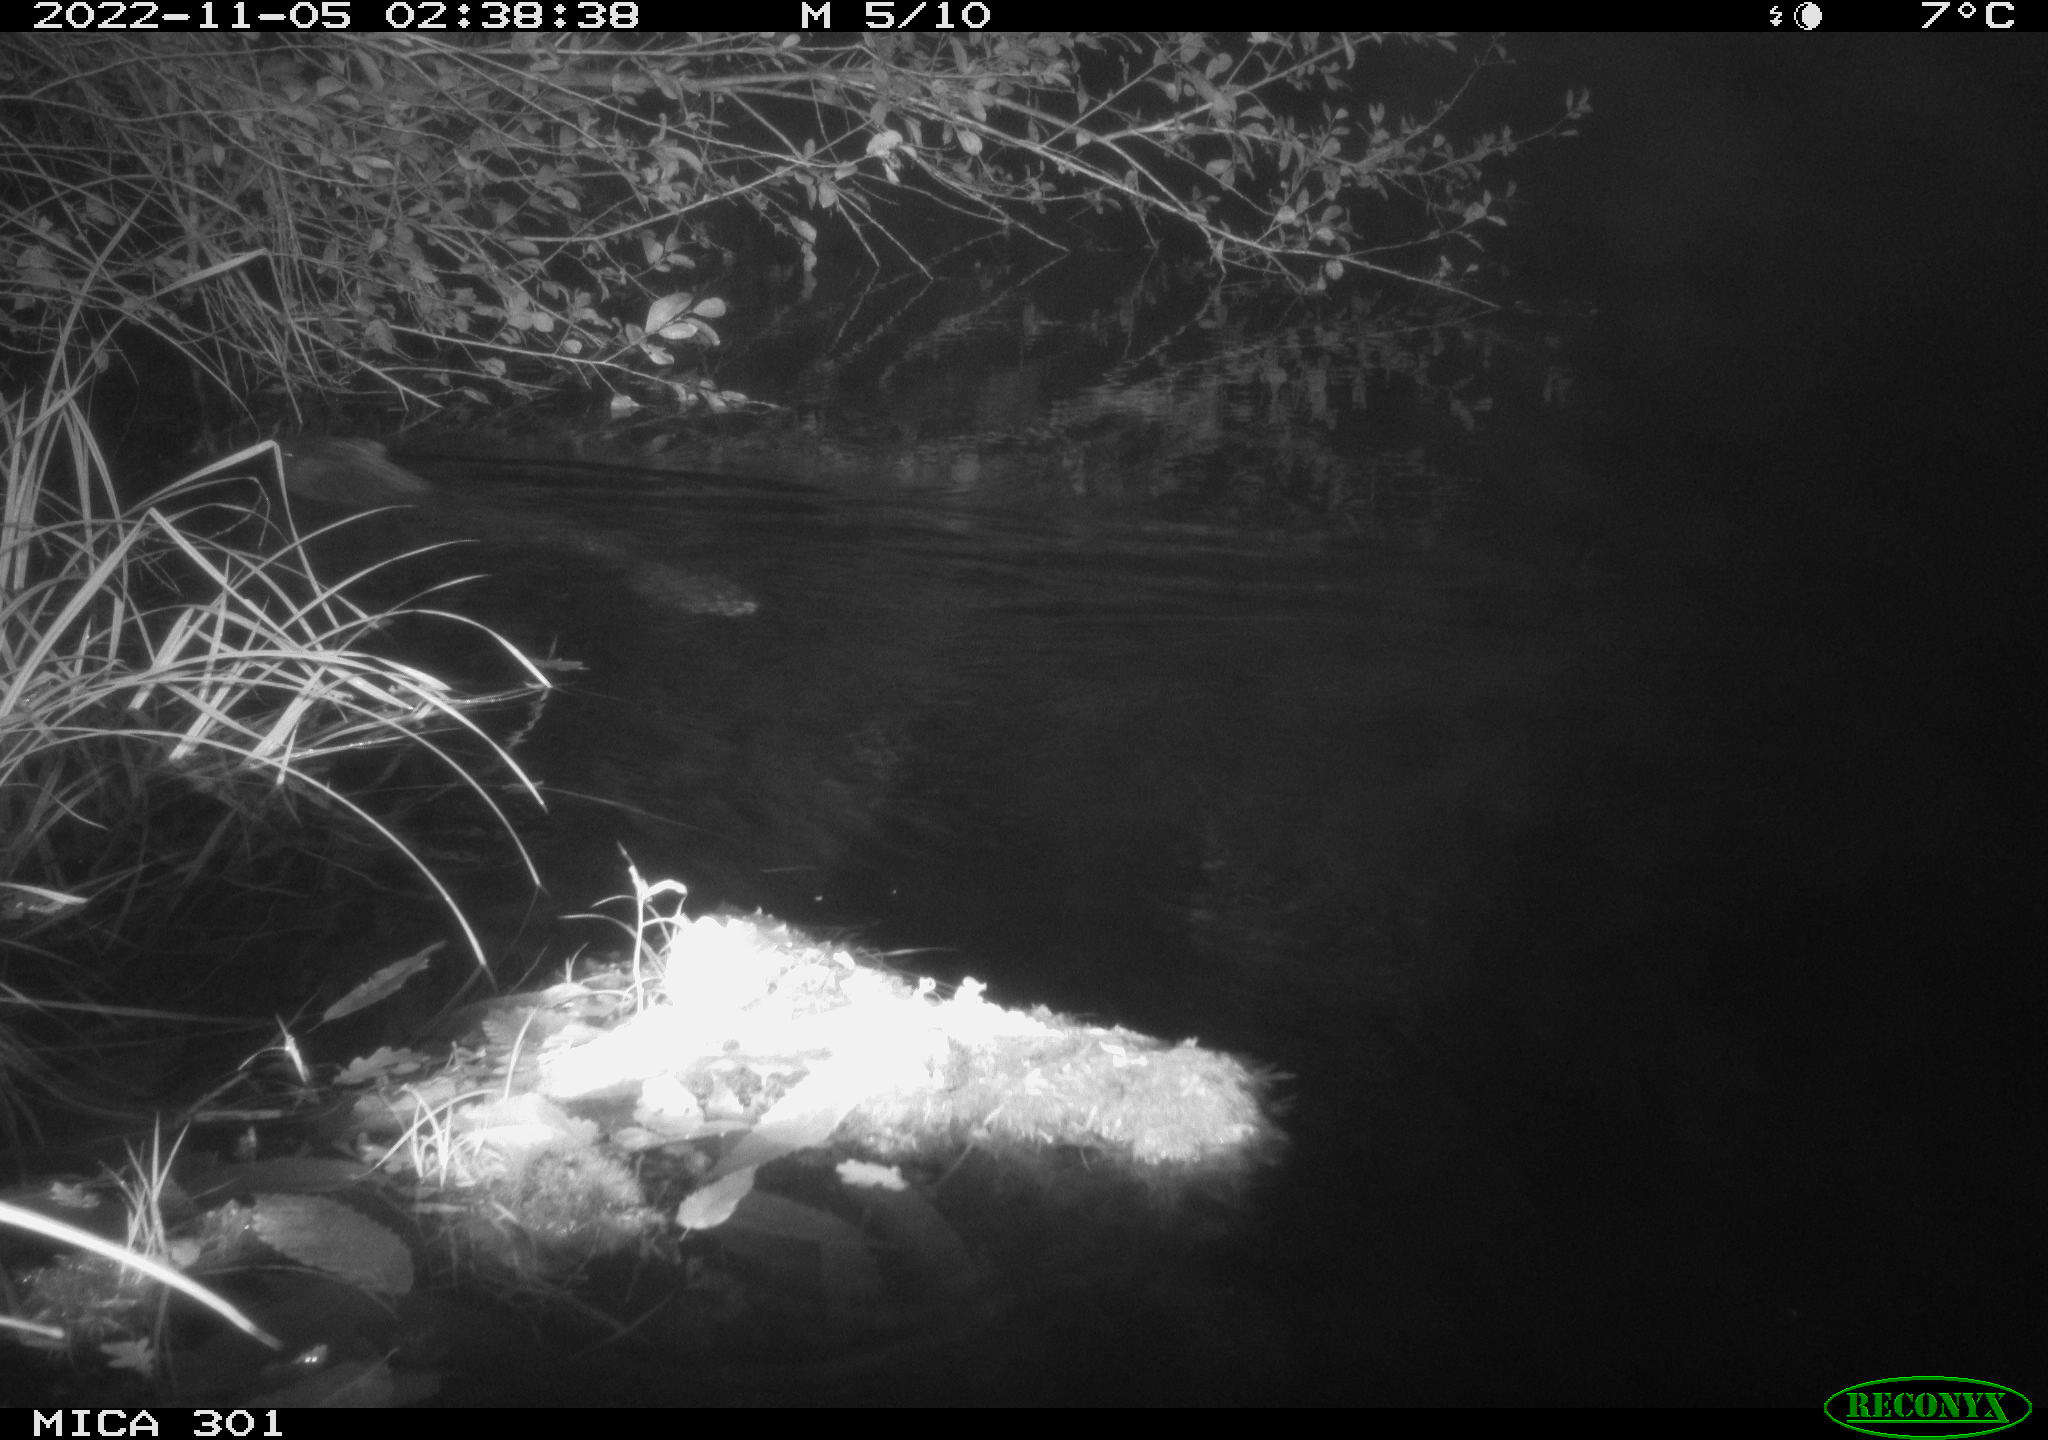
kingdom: Animalia
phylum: Chordata
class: Mammalia
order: Rodentia
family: Castoridae
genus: Castor
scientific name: Castor fiber
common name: Eurasian beaver
